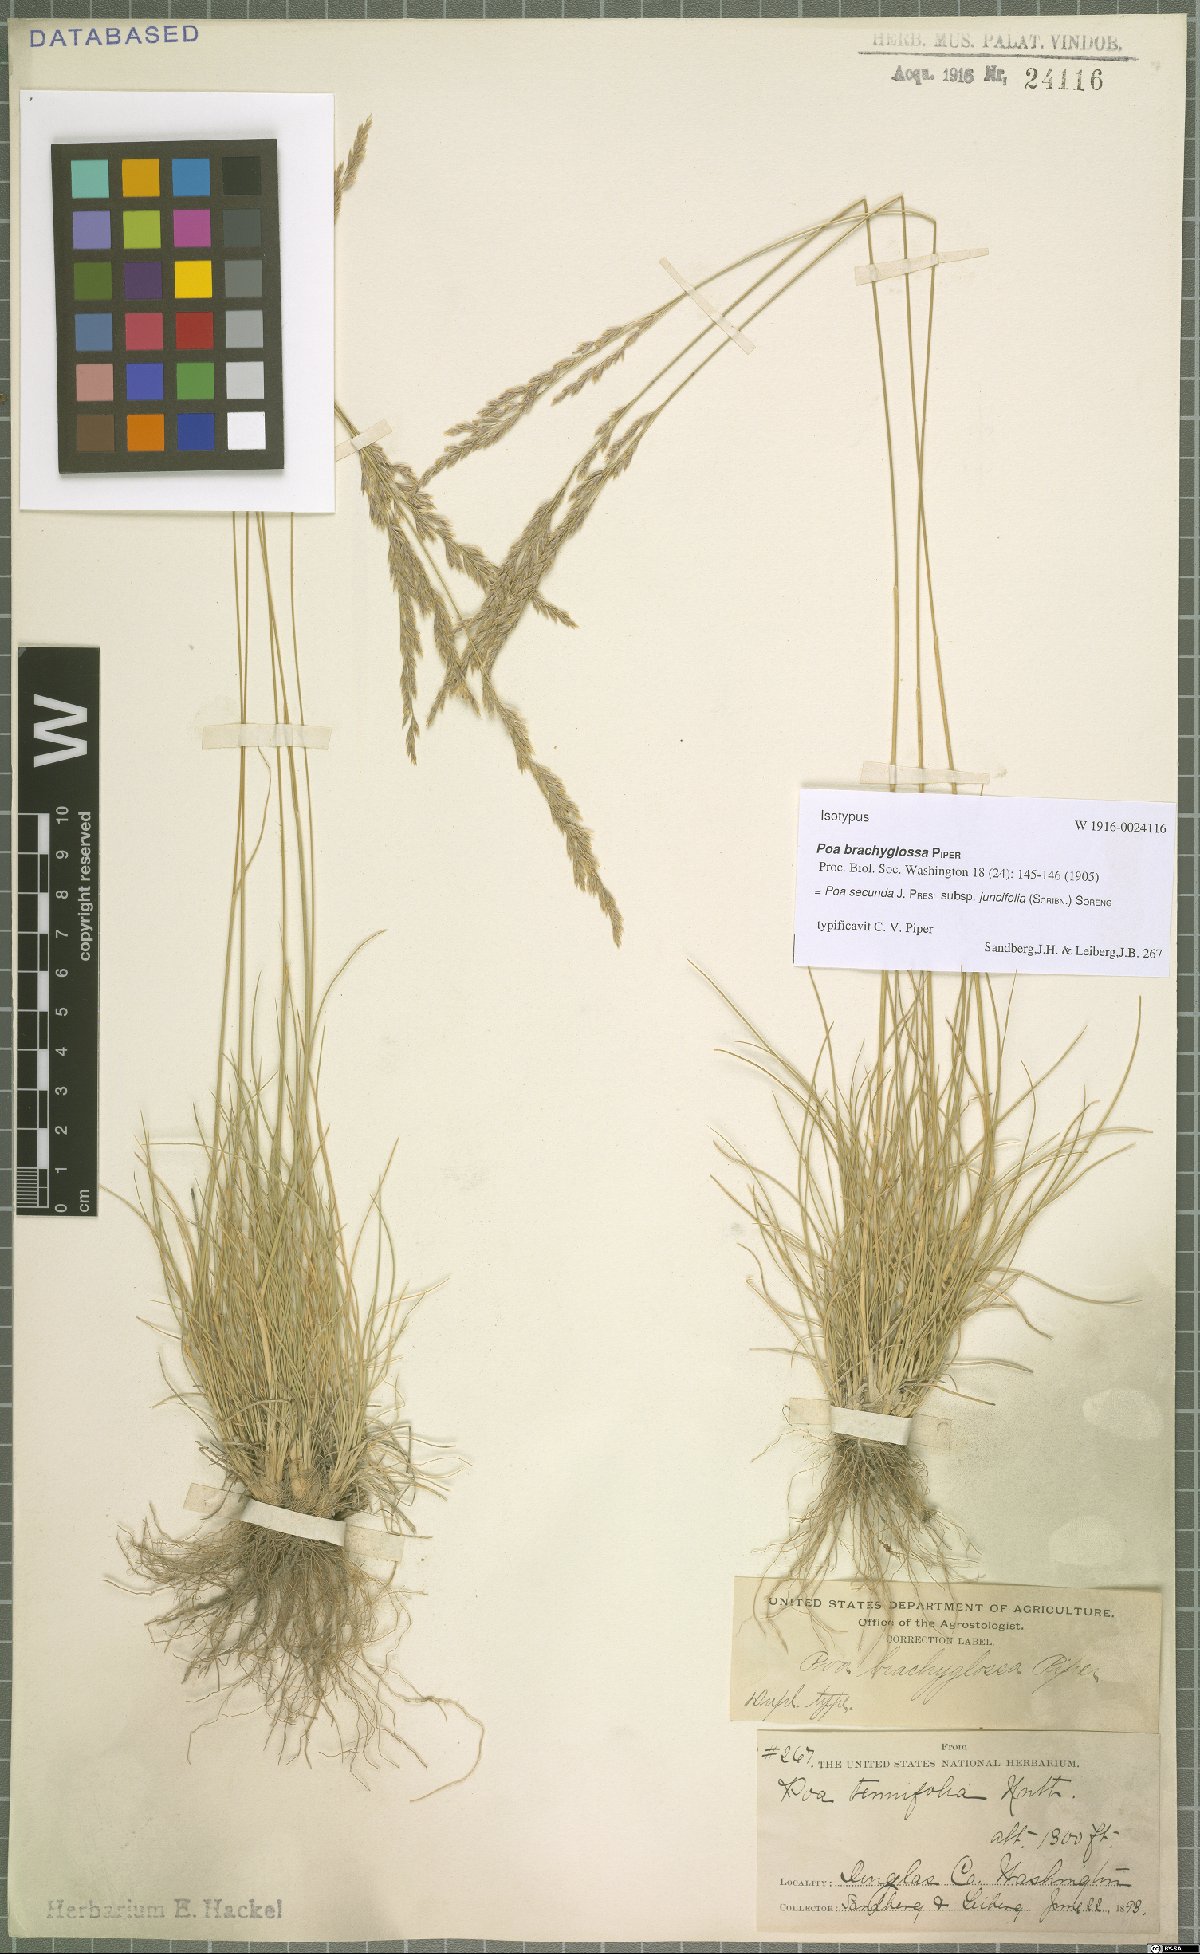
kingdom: Plantae
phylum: Tracheophyta
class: Liliopsida
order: Poales
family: Poaceae
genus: Poa
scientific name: Poa secunda
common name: Sandberg bluegrass
